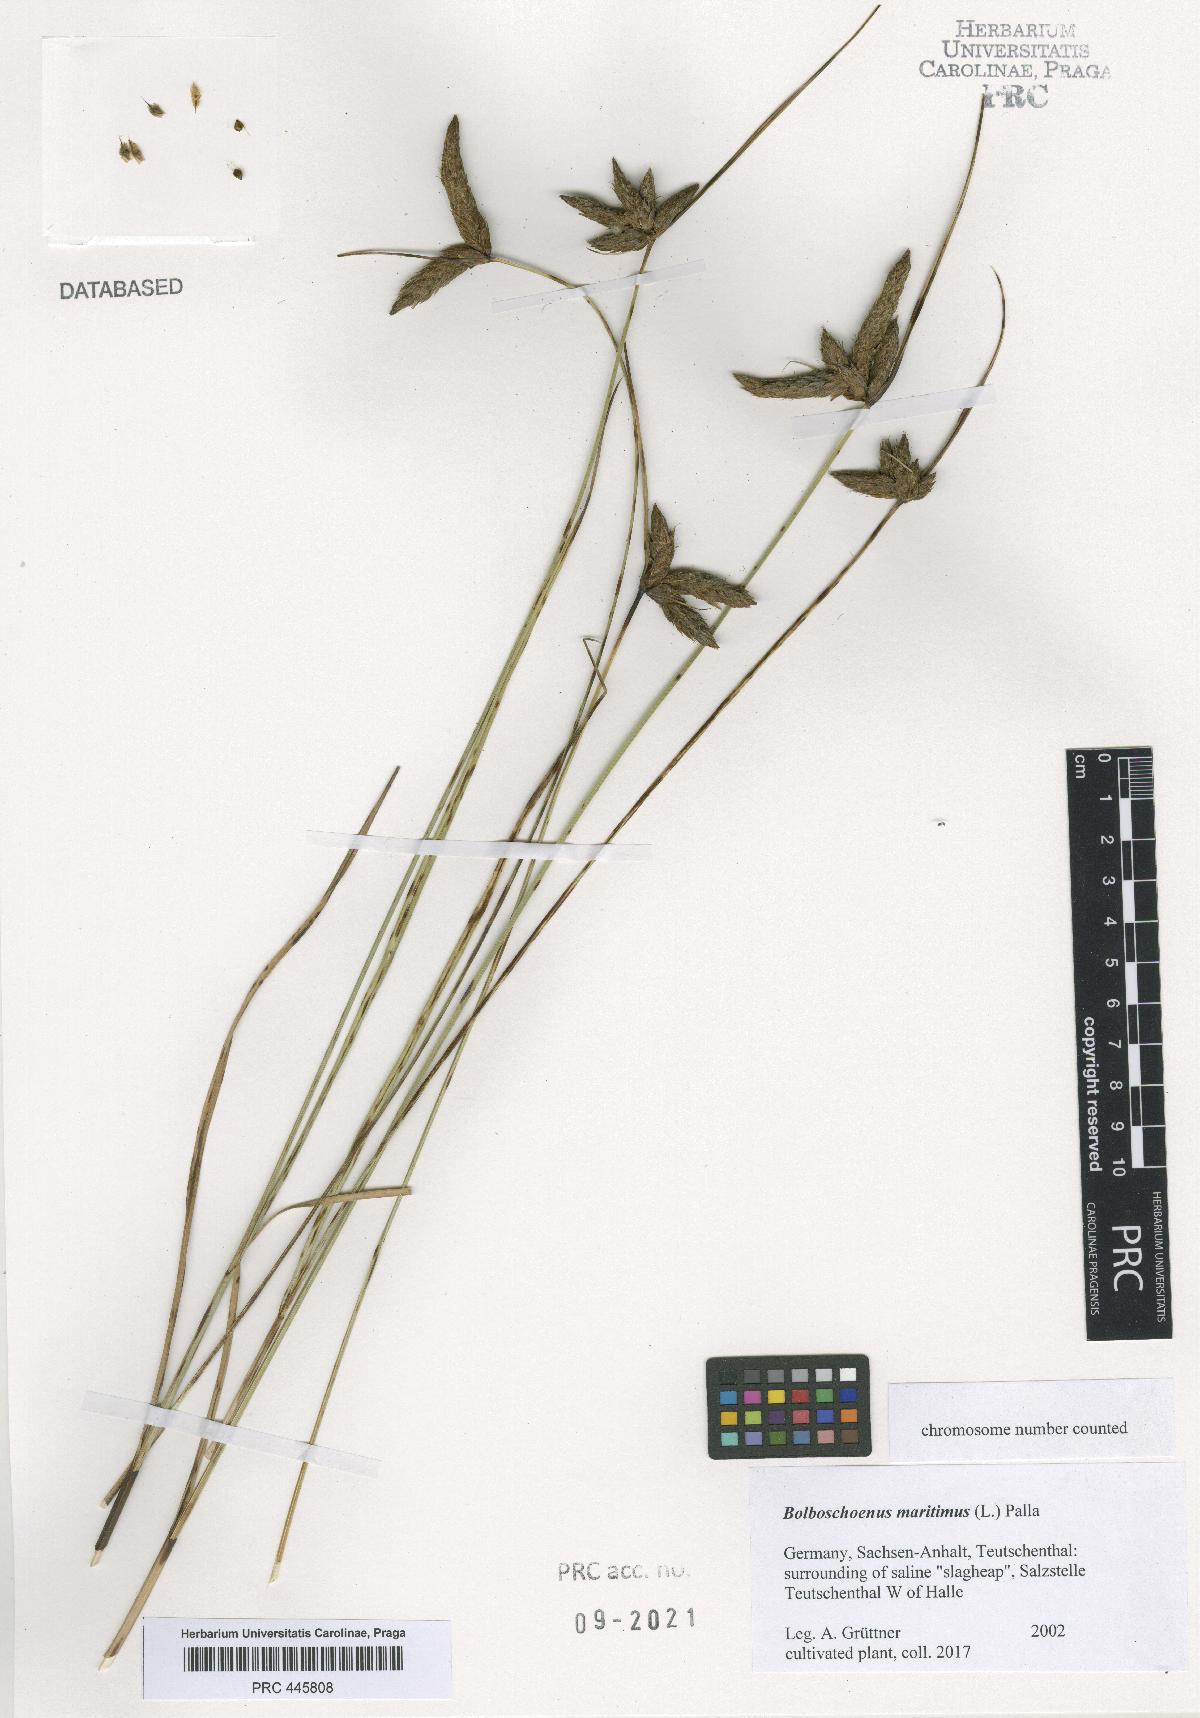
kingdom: Plantae
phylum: Tracheophyta
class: Liliopsida
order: Poales
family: Cyperaceae
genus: Bolboschoenus
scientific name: Bolboschoenus maritimus
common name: Sea club-rush
